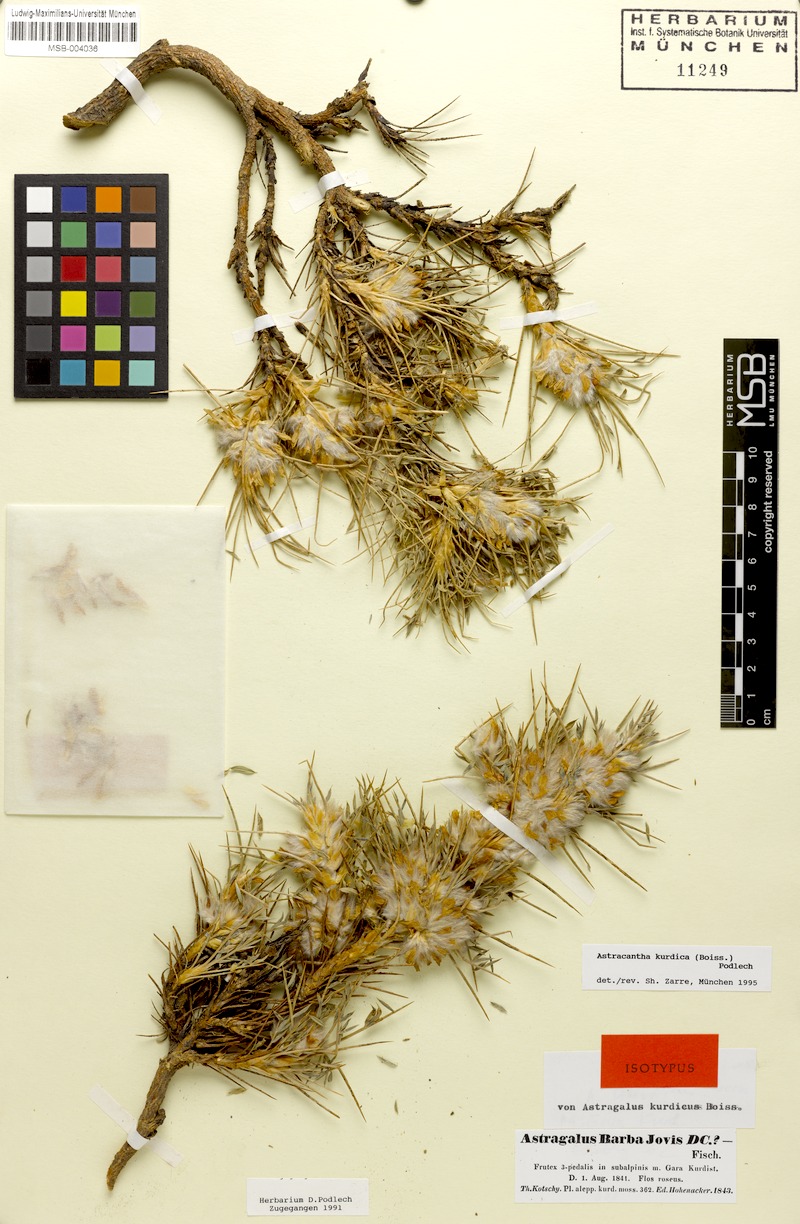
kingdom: Plantae
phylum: Tracheophyta
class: Magnoliopsida
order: Fabales
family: Fabaceae
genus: Astragalus
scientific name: Astragalus kurdicus
